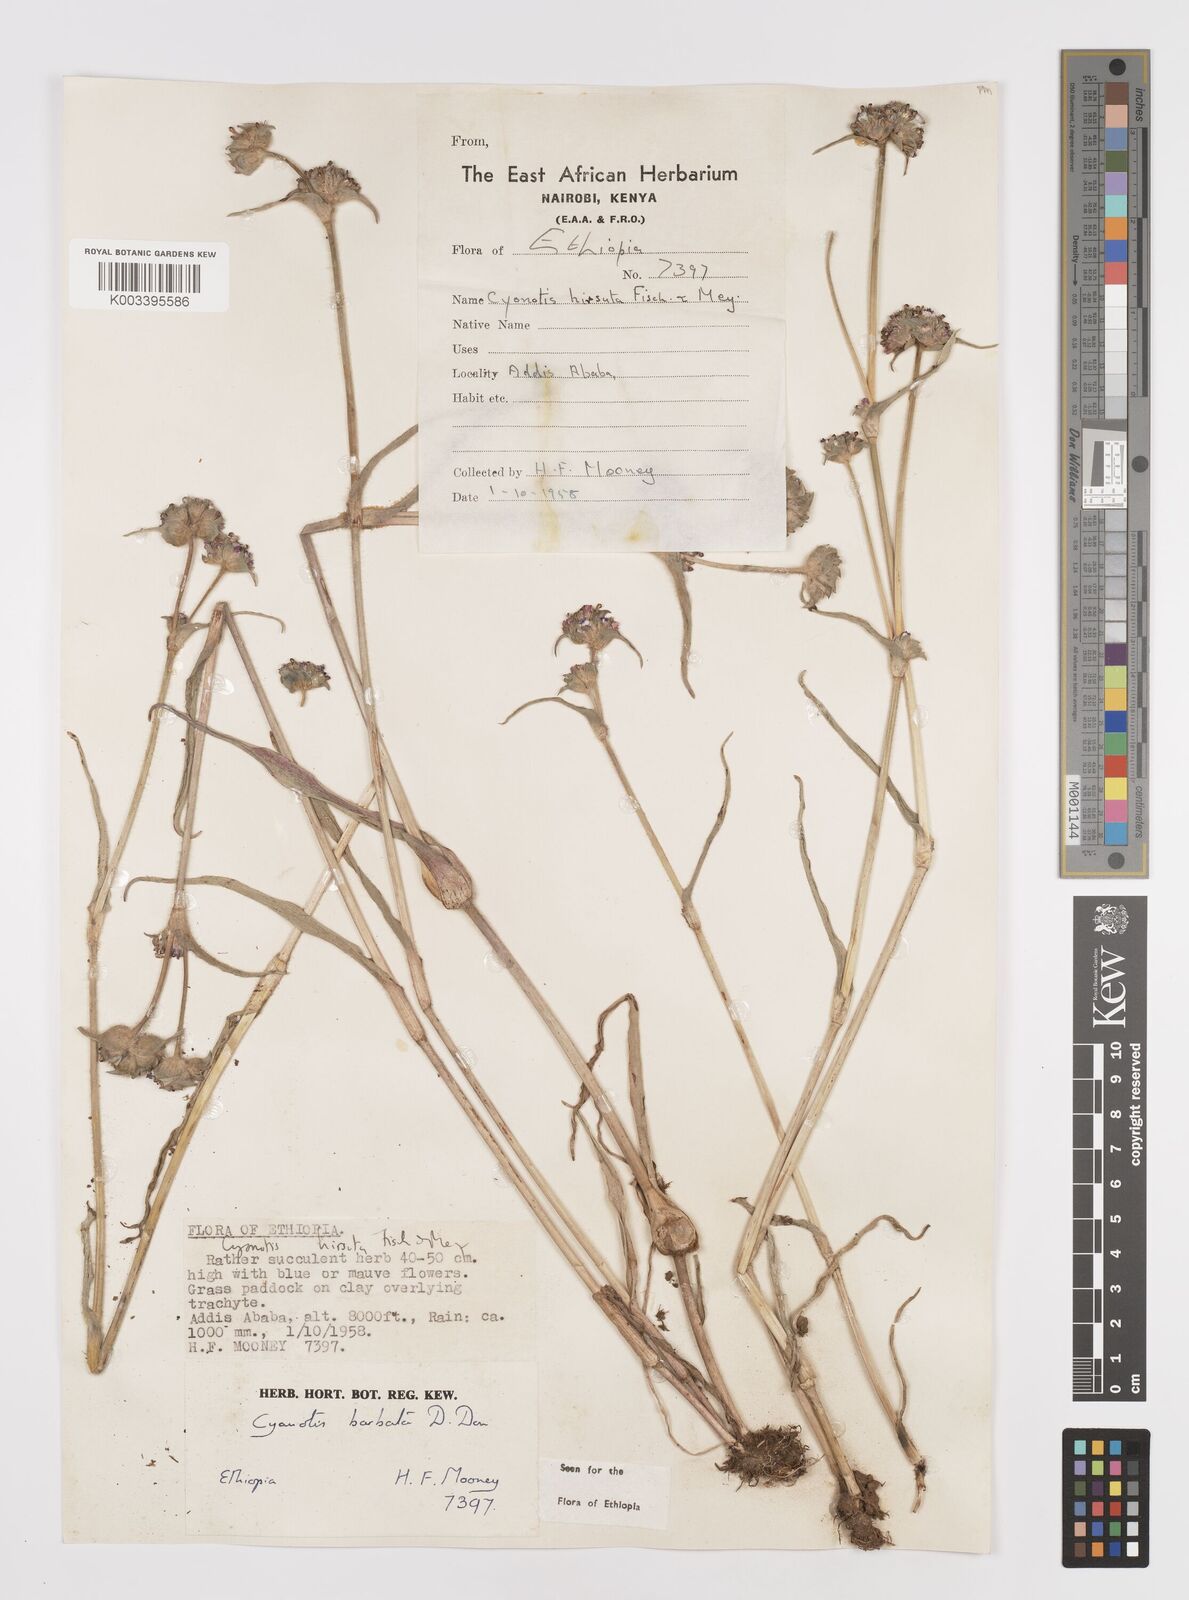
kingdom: Plantae
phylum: Tracheophyta
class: Liliopsida
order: Commelinales
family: Commelinaceae
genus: Cyanotis
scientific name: Cyanotis vaga
